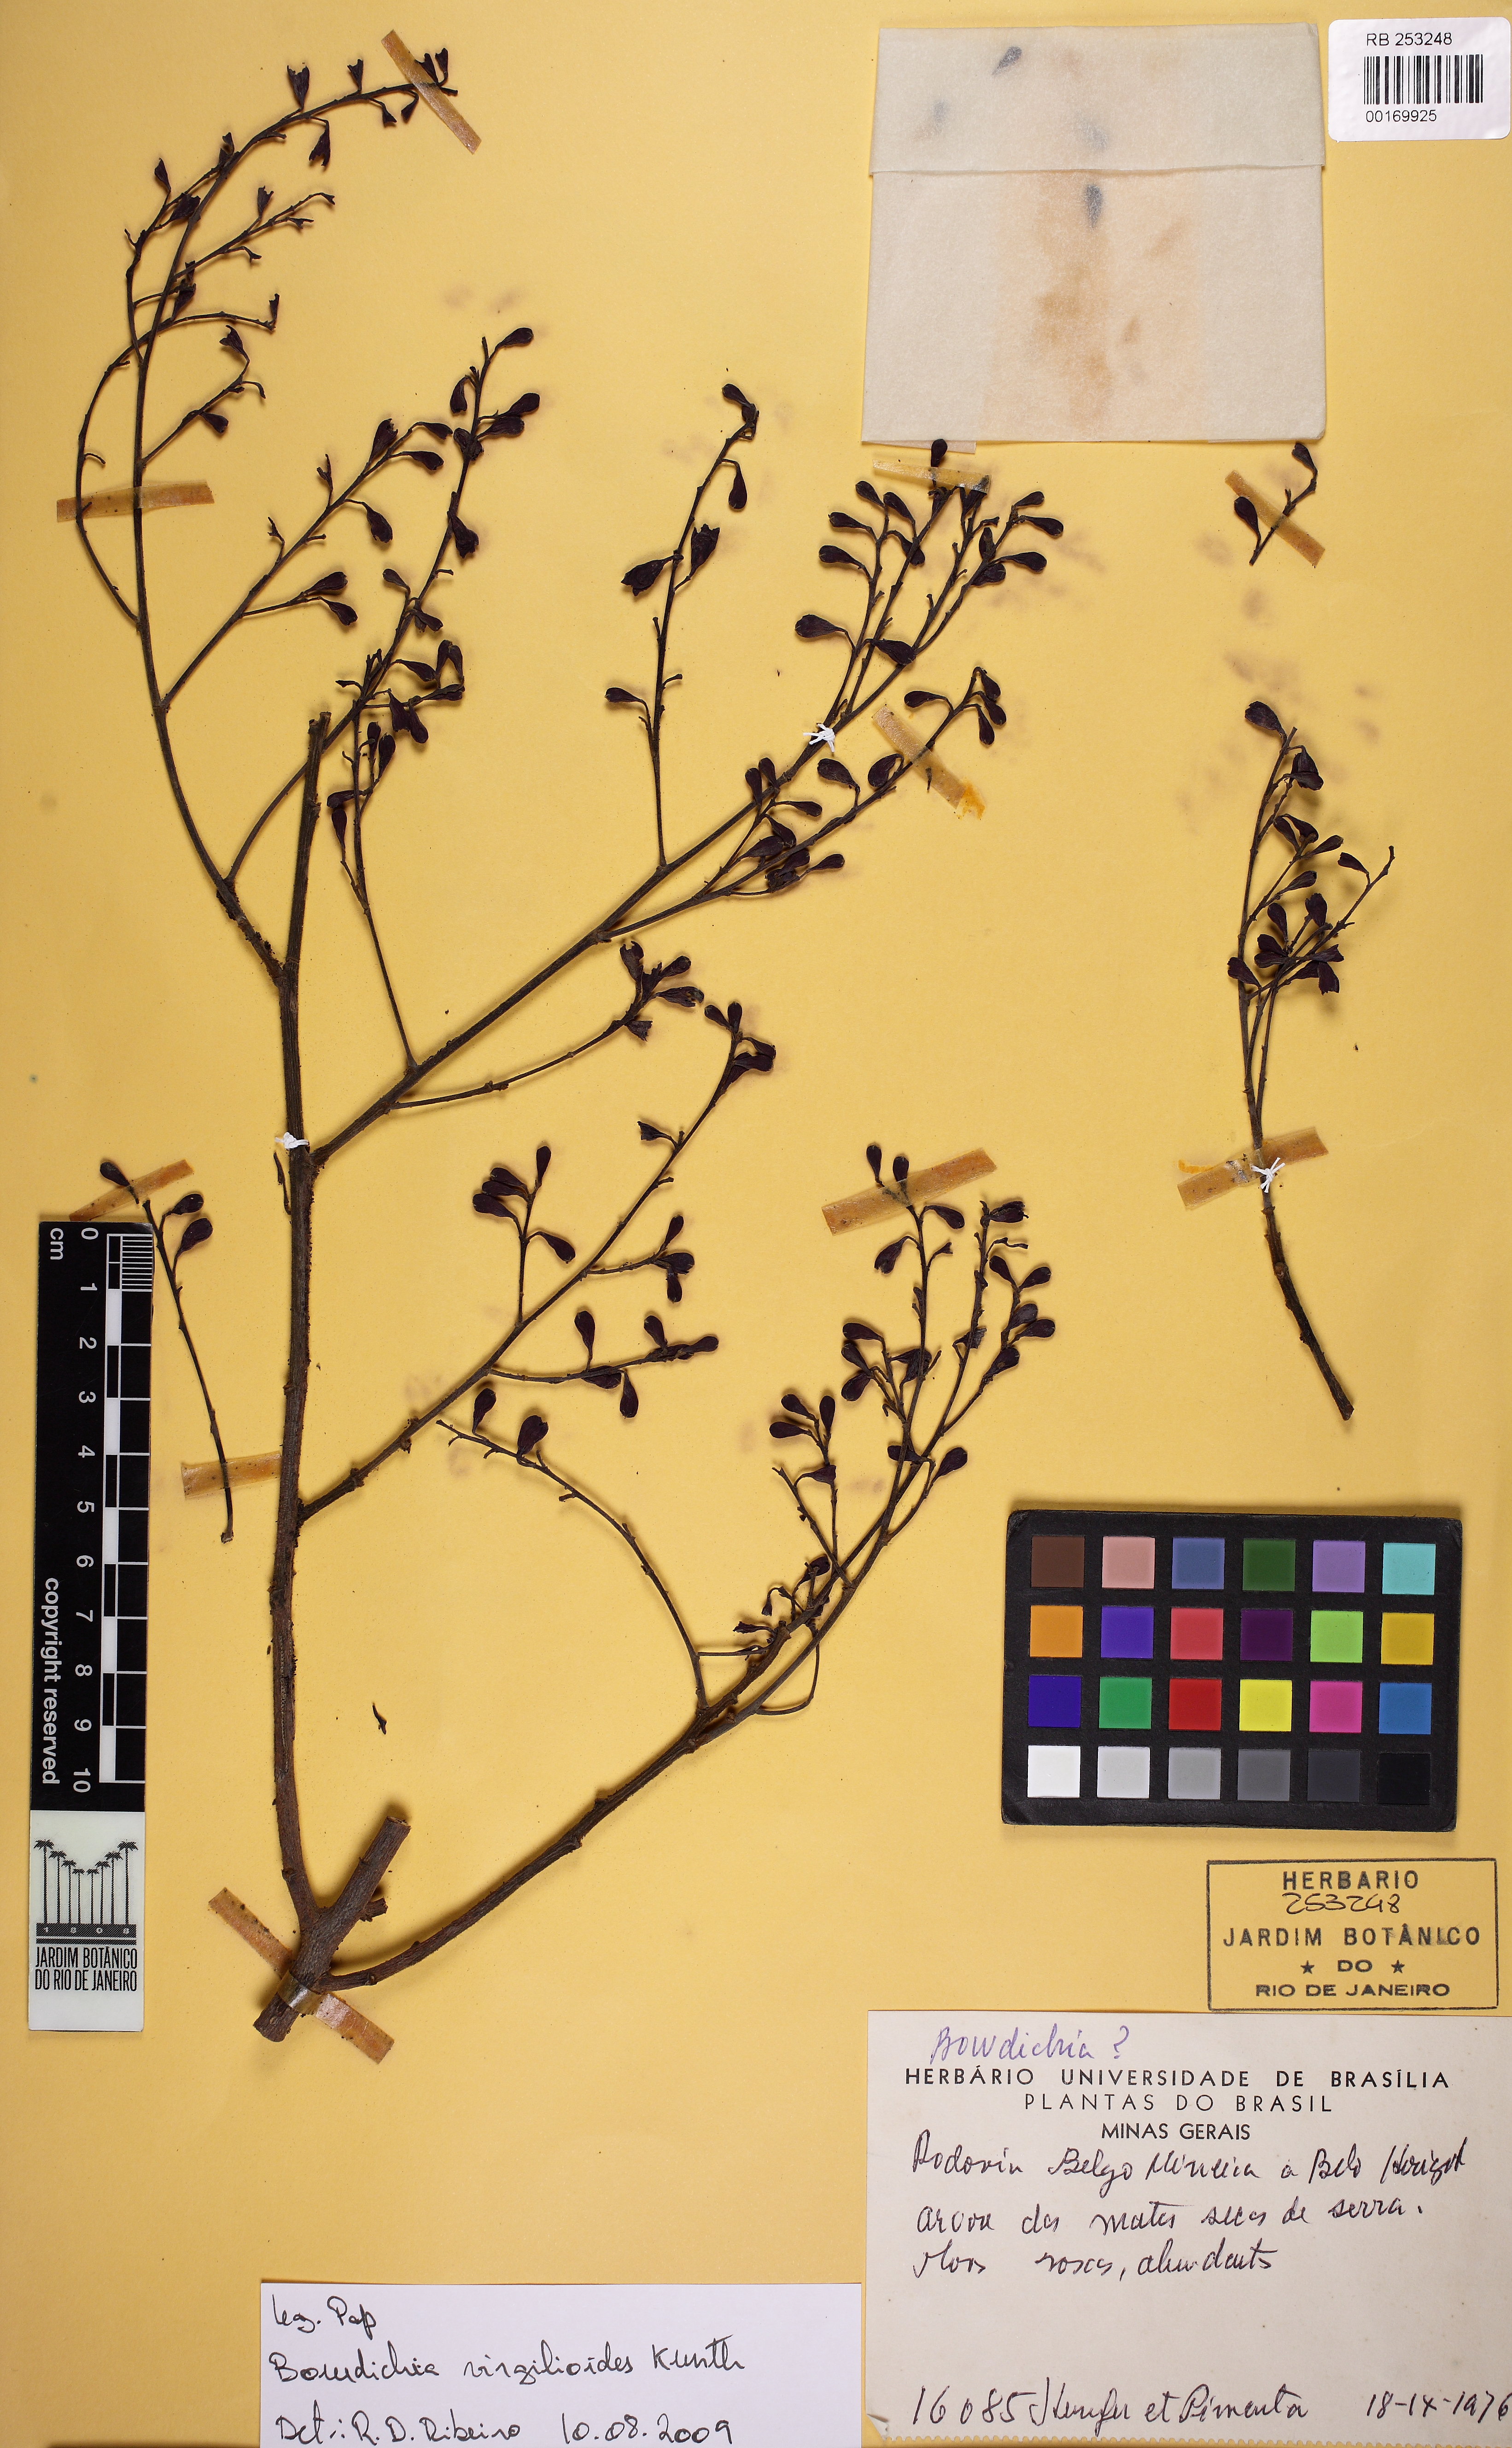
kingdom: Plantae
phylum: Tracheophyta
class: Magnoliopsida
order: Fabales
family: Fabaceae
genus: Bowdichia
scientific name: Bowdichia
